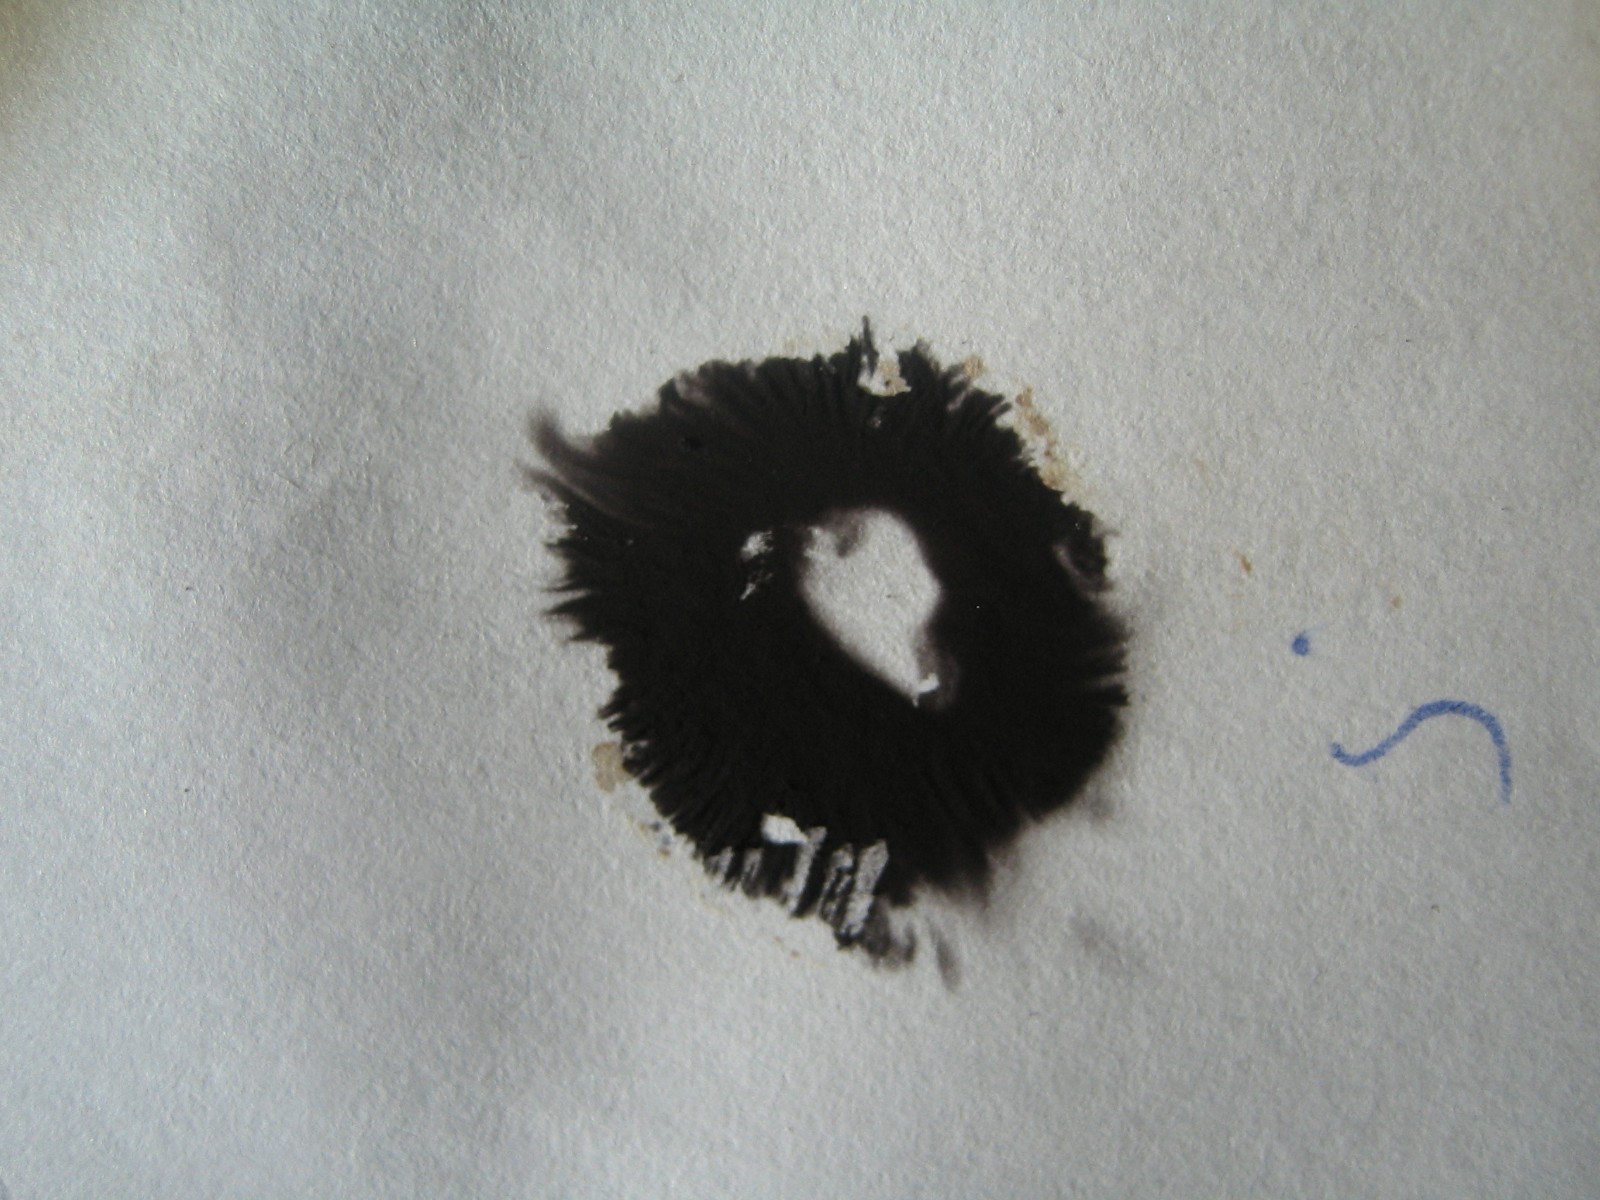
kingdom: Fungi
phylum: Basidiomycota
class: Agaricomycetes
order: Agaricales
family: Psathyrellaceae
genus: Coprinellus
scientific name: Coprinellus micaceus
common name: glimmer-blækhat
